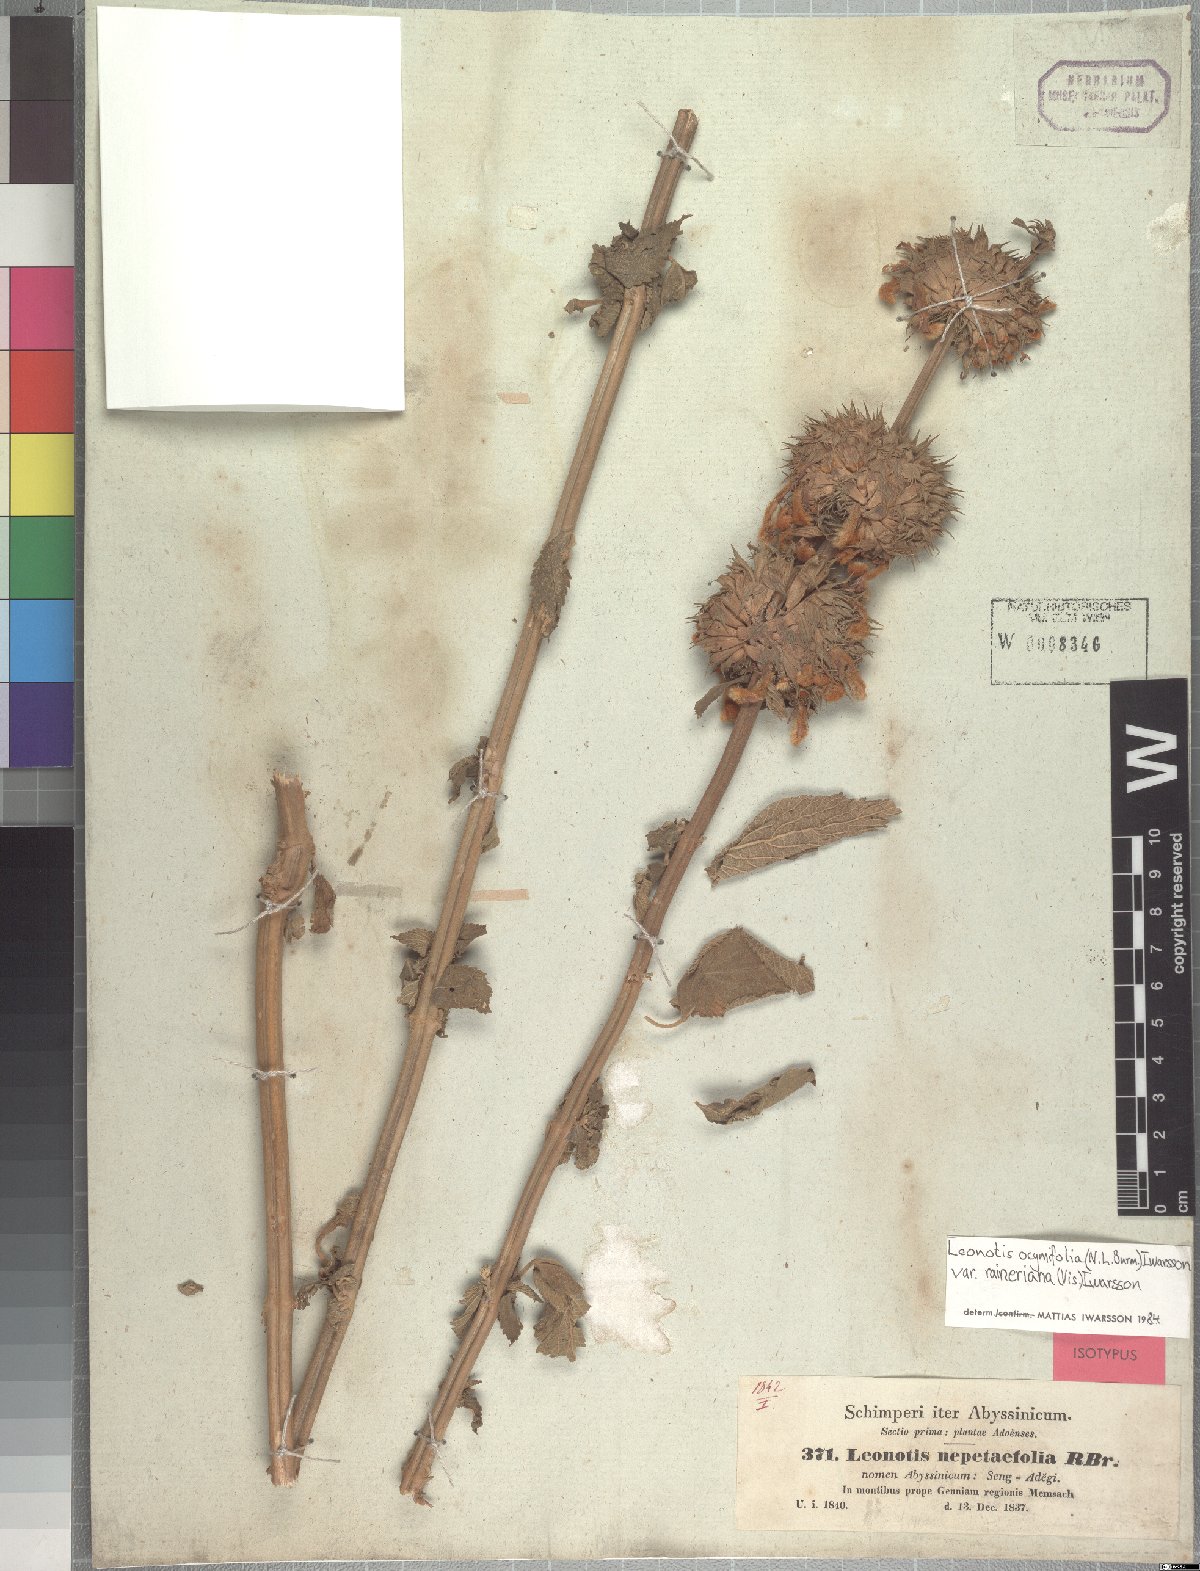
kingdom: Plantae
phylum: Tracheophyta
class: Magnoliopsida
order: Lamiales
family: Lamiaceae
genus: Leonotis
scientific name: Leonotis ocymifolia
